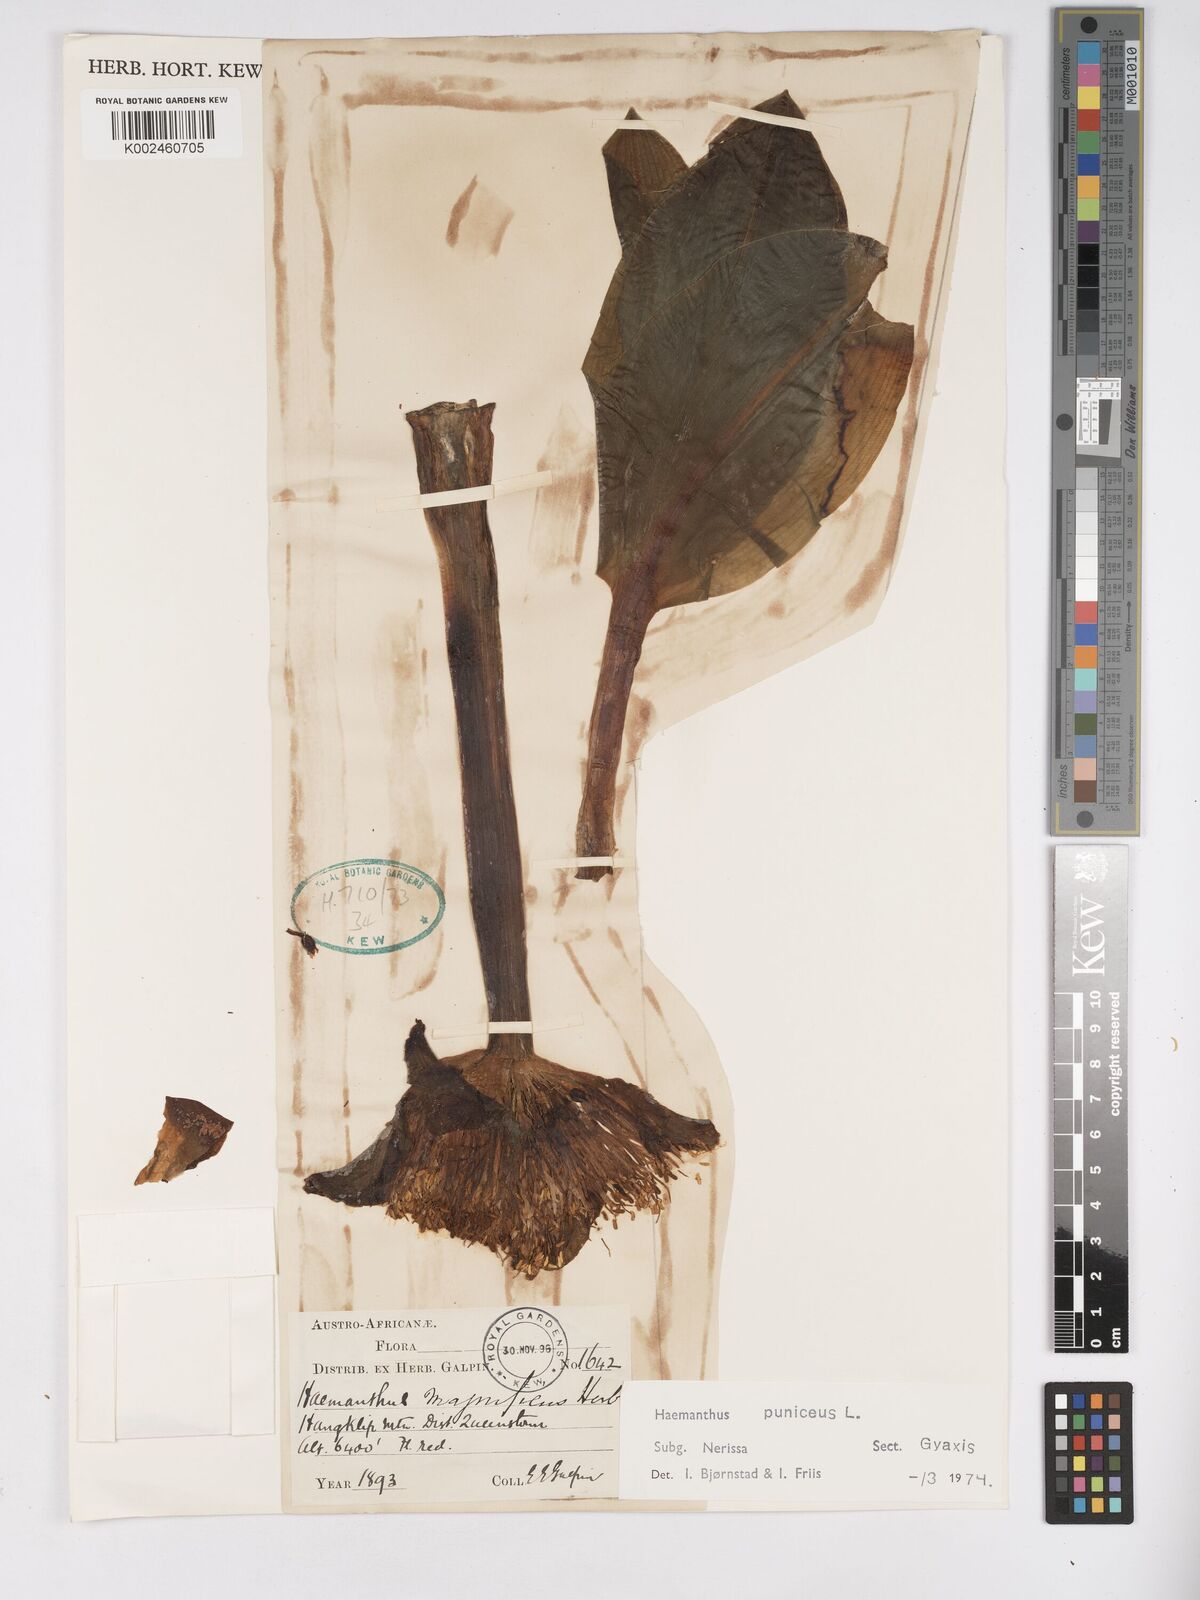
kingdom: Plantae
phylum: Tracheophyta
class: Liliopsida
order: Asparagales
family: Amaryllidaceae
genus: Scadoxus
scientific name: Scadoxus puniceus
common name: Royal-paintbrush
